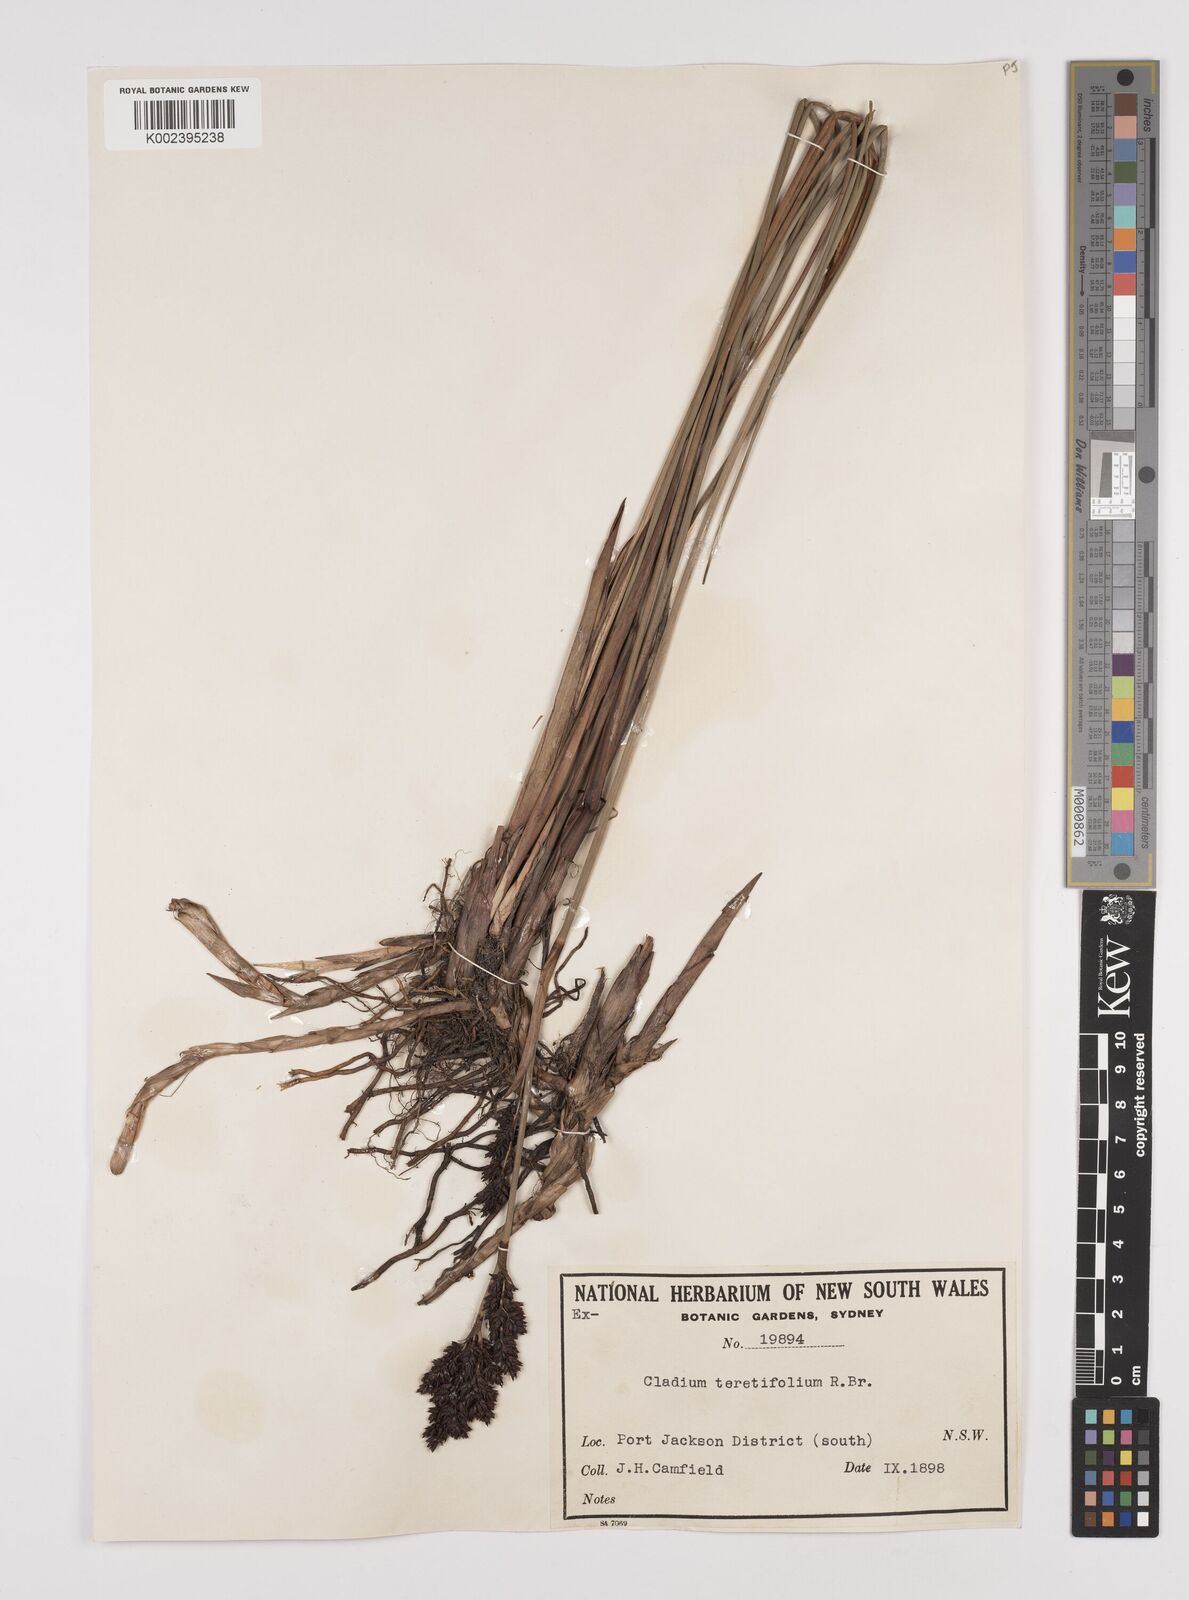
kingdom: Plantae
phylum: Tracheophyta
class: Liliopsida
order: Poales
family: Cyperaceae
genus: Machaerina
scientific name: Machaerina teretifolia
